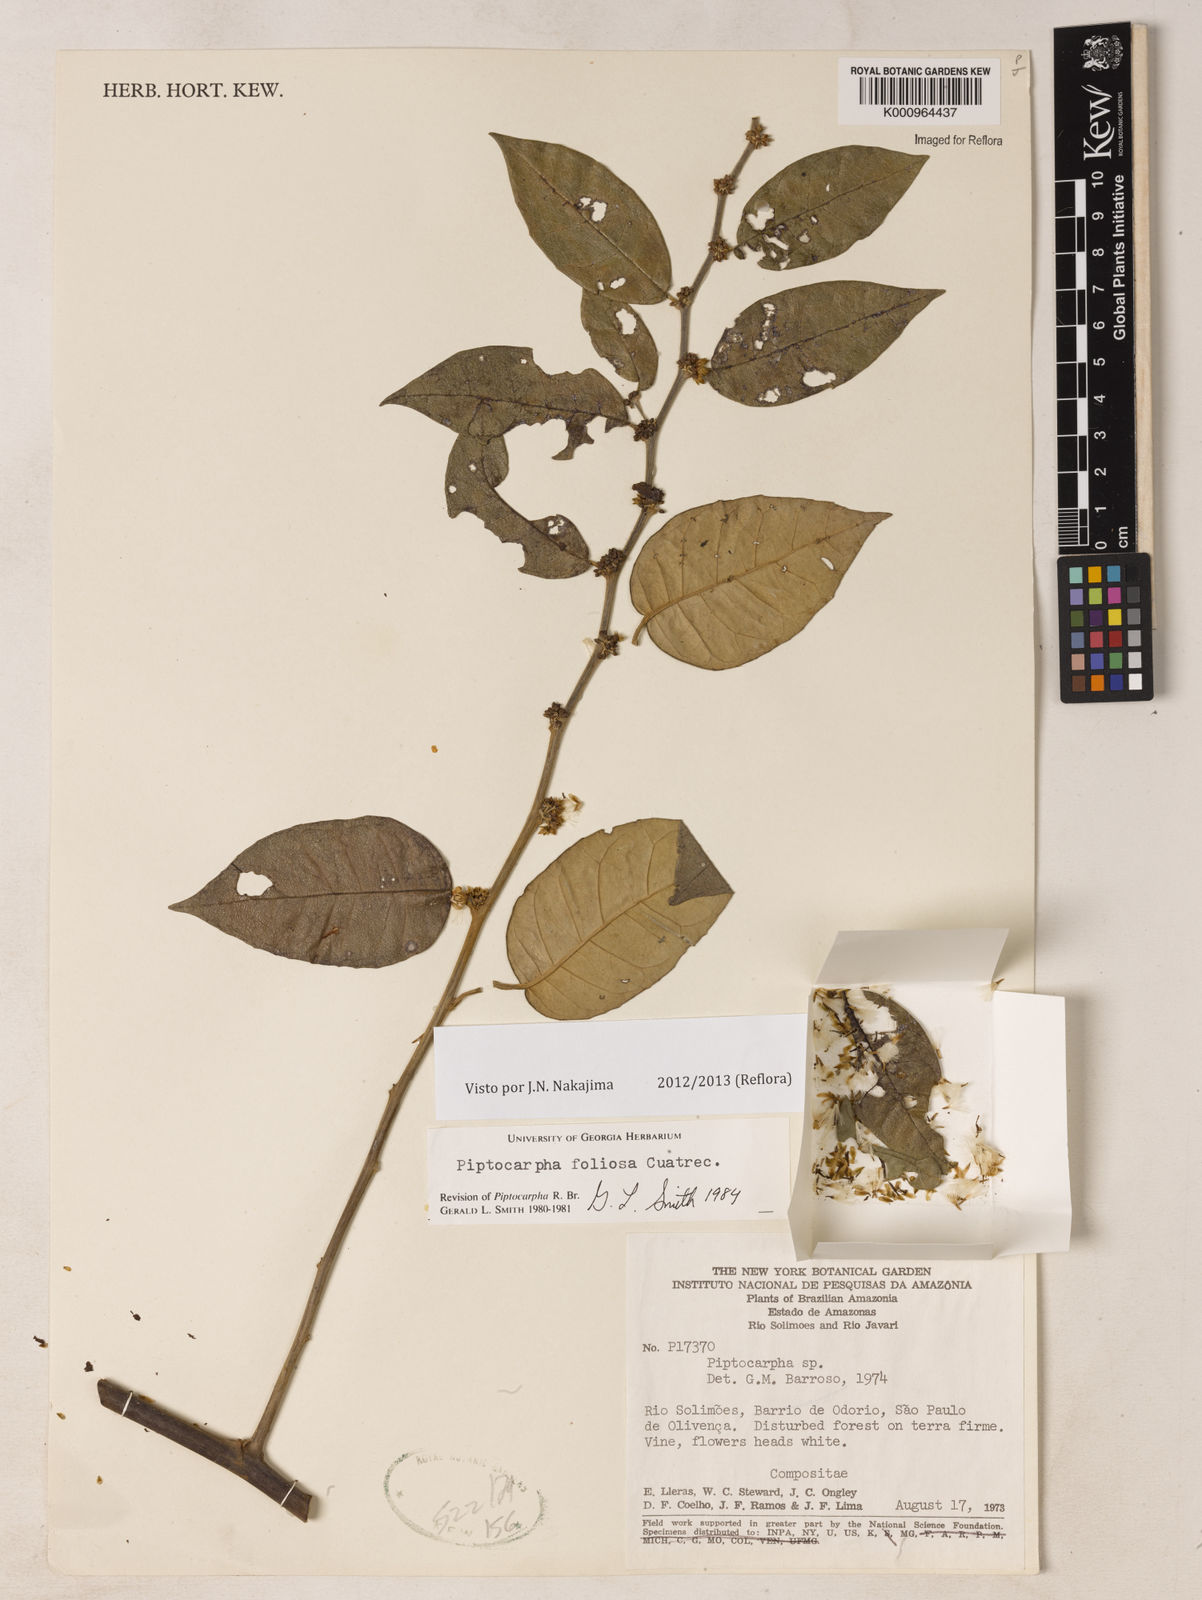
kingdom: Plantae
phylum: Tracheophyta
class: Magnoliopsida
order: Asterales
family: Asteraceae
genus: Piptocarpha
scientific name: Piptocarpha poeppigiana
